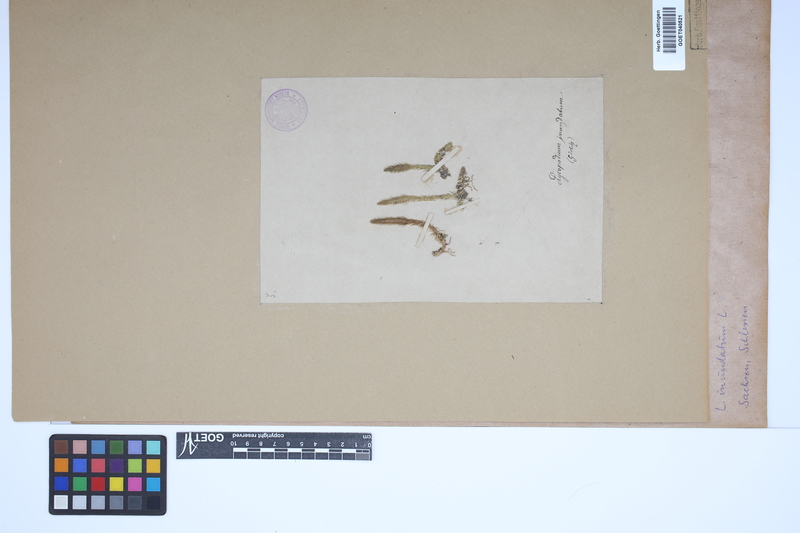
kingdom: Plantae
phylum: Tracheophyta
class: Lycopodiopsida
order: Lycopodiales
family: Lycopodiaceae
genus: Lycopodiella
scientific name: Lycopodiella inundata
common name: Marsh clubmoss
